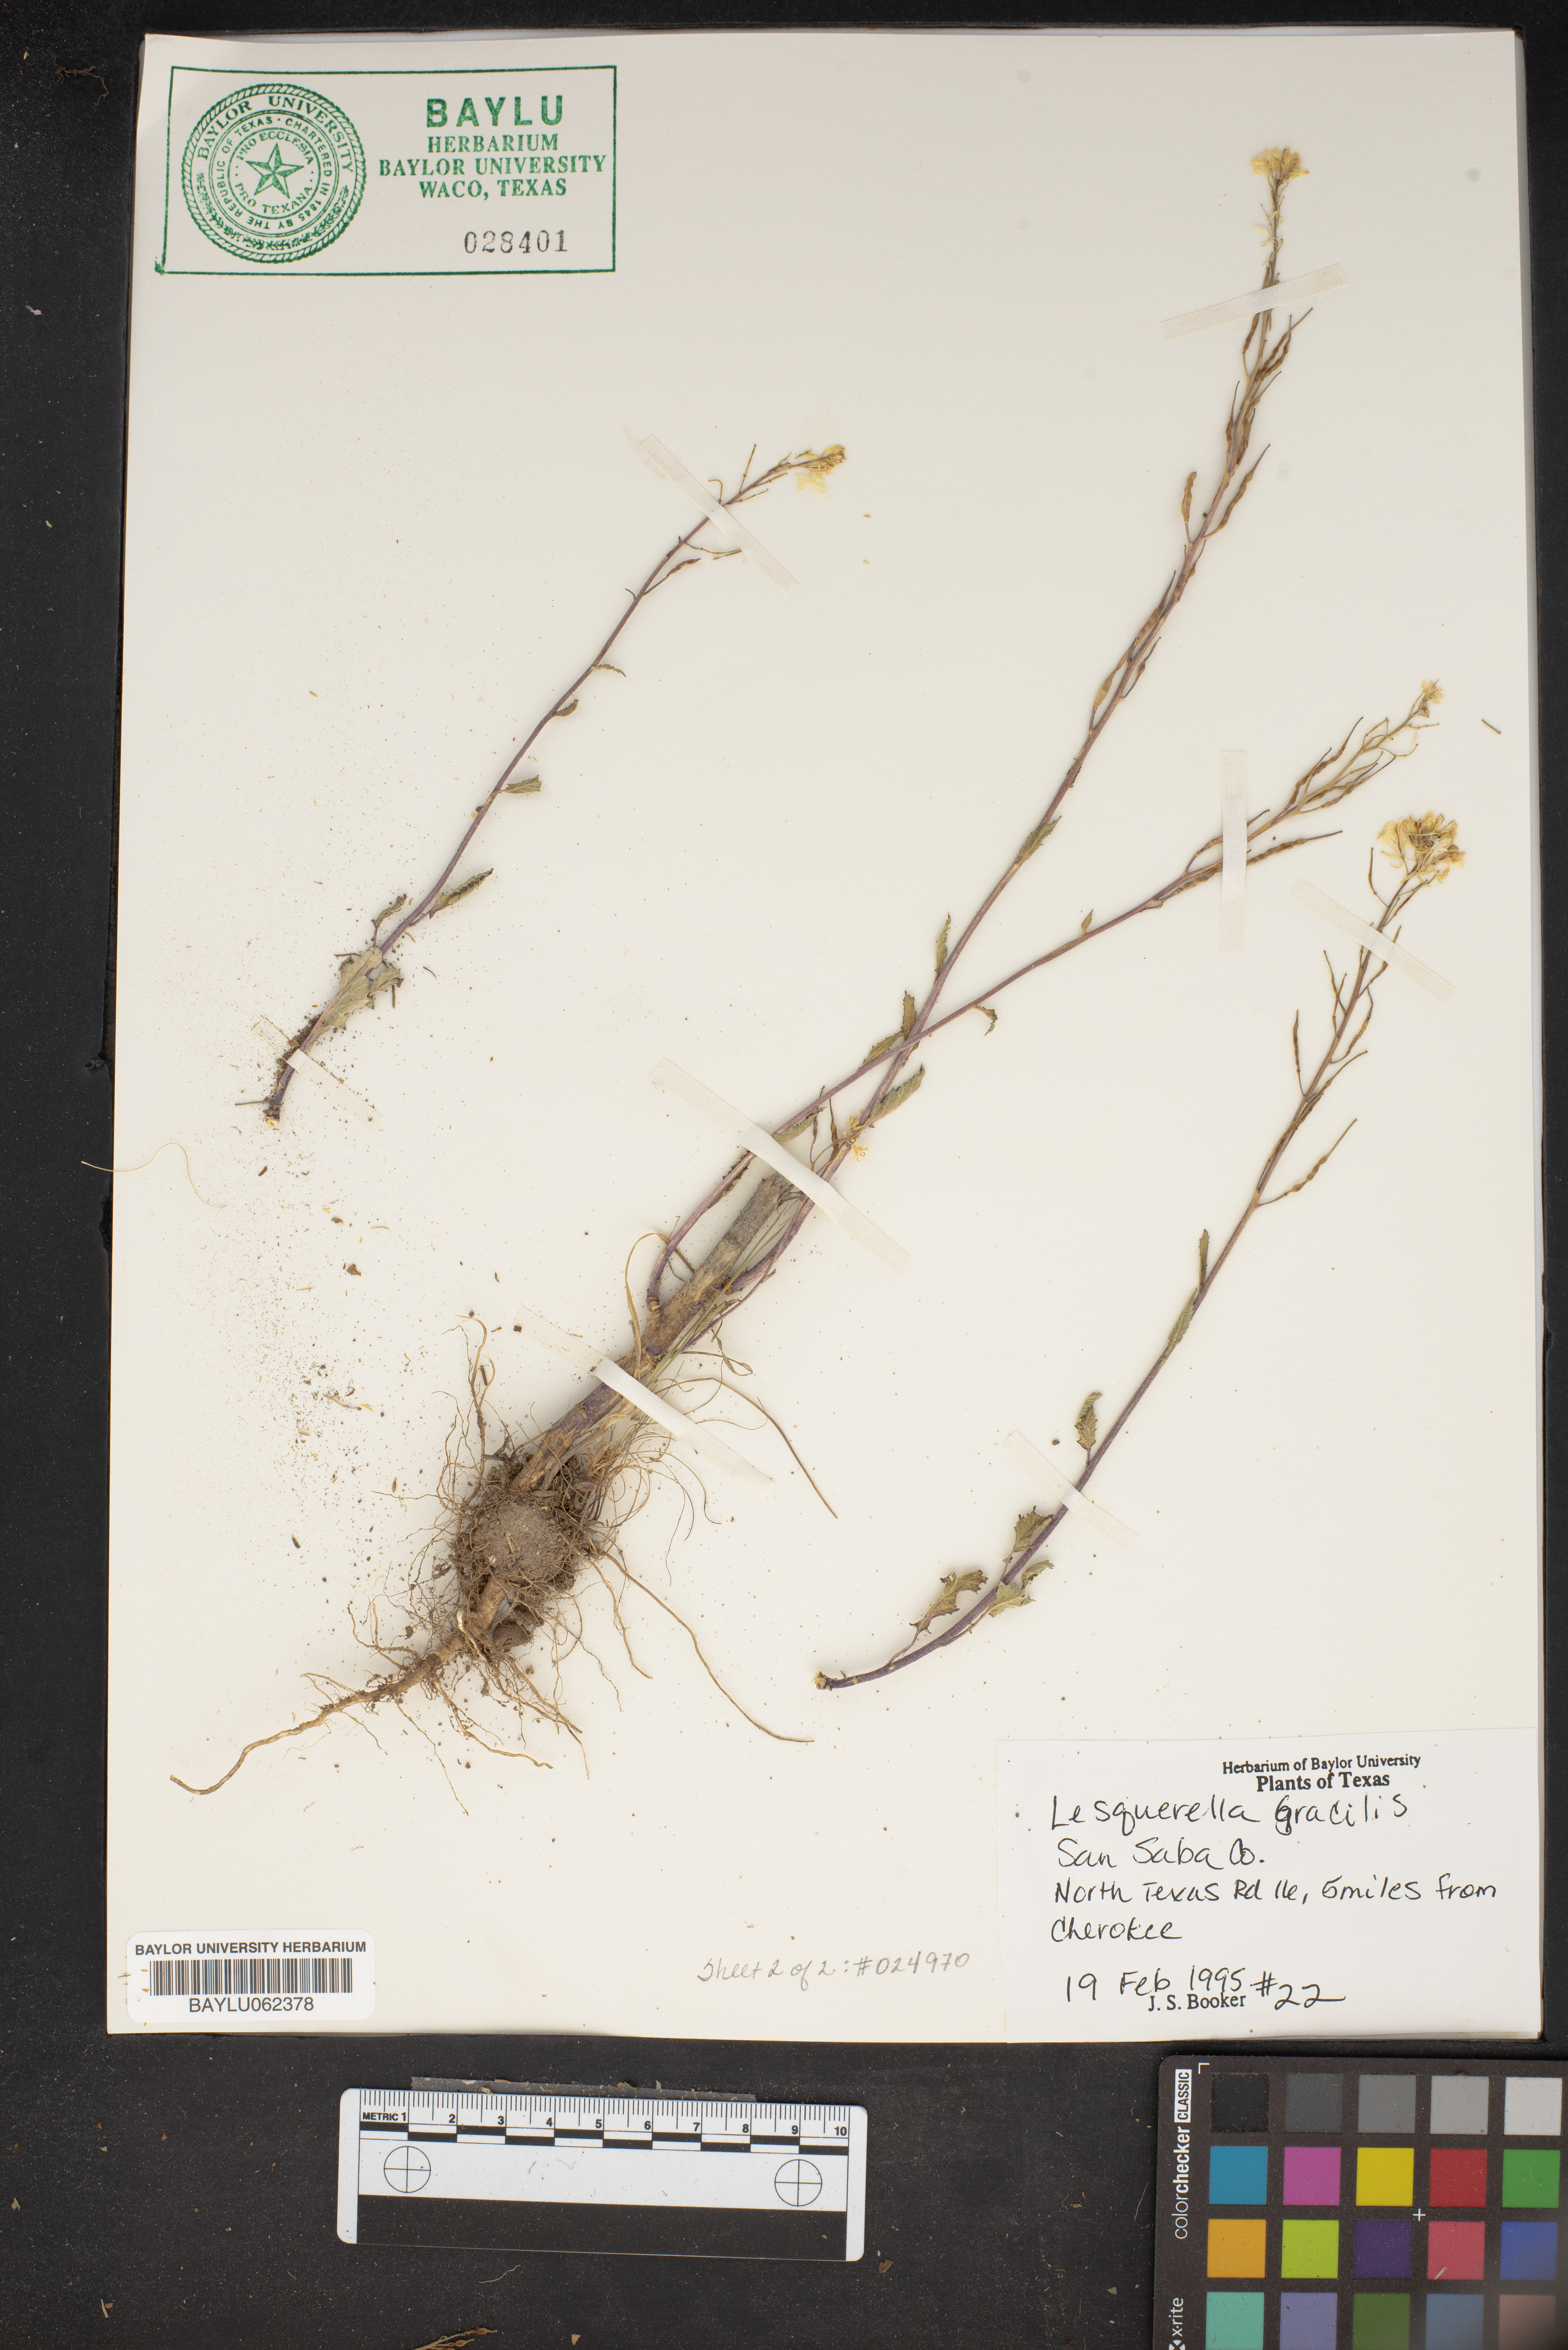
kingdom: Plantae
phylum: Tracheophyta
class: Magnoliopsida
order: Brassicales
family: Brassicaceae
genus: Physaria
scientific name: Physaria gracilis
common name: Spreading bladderpod
